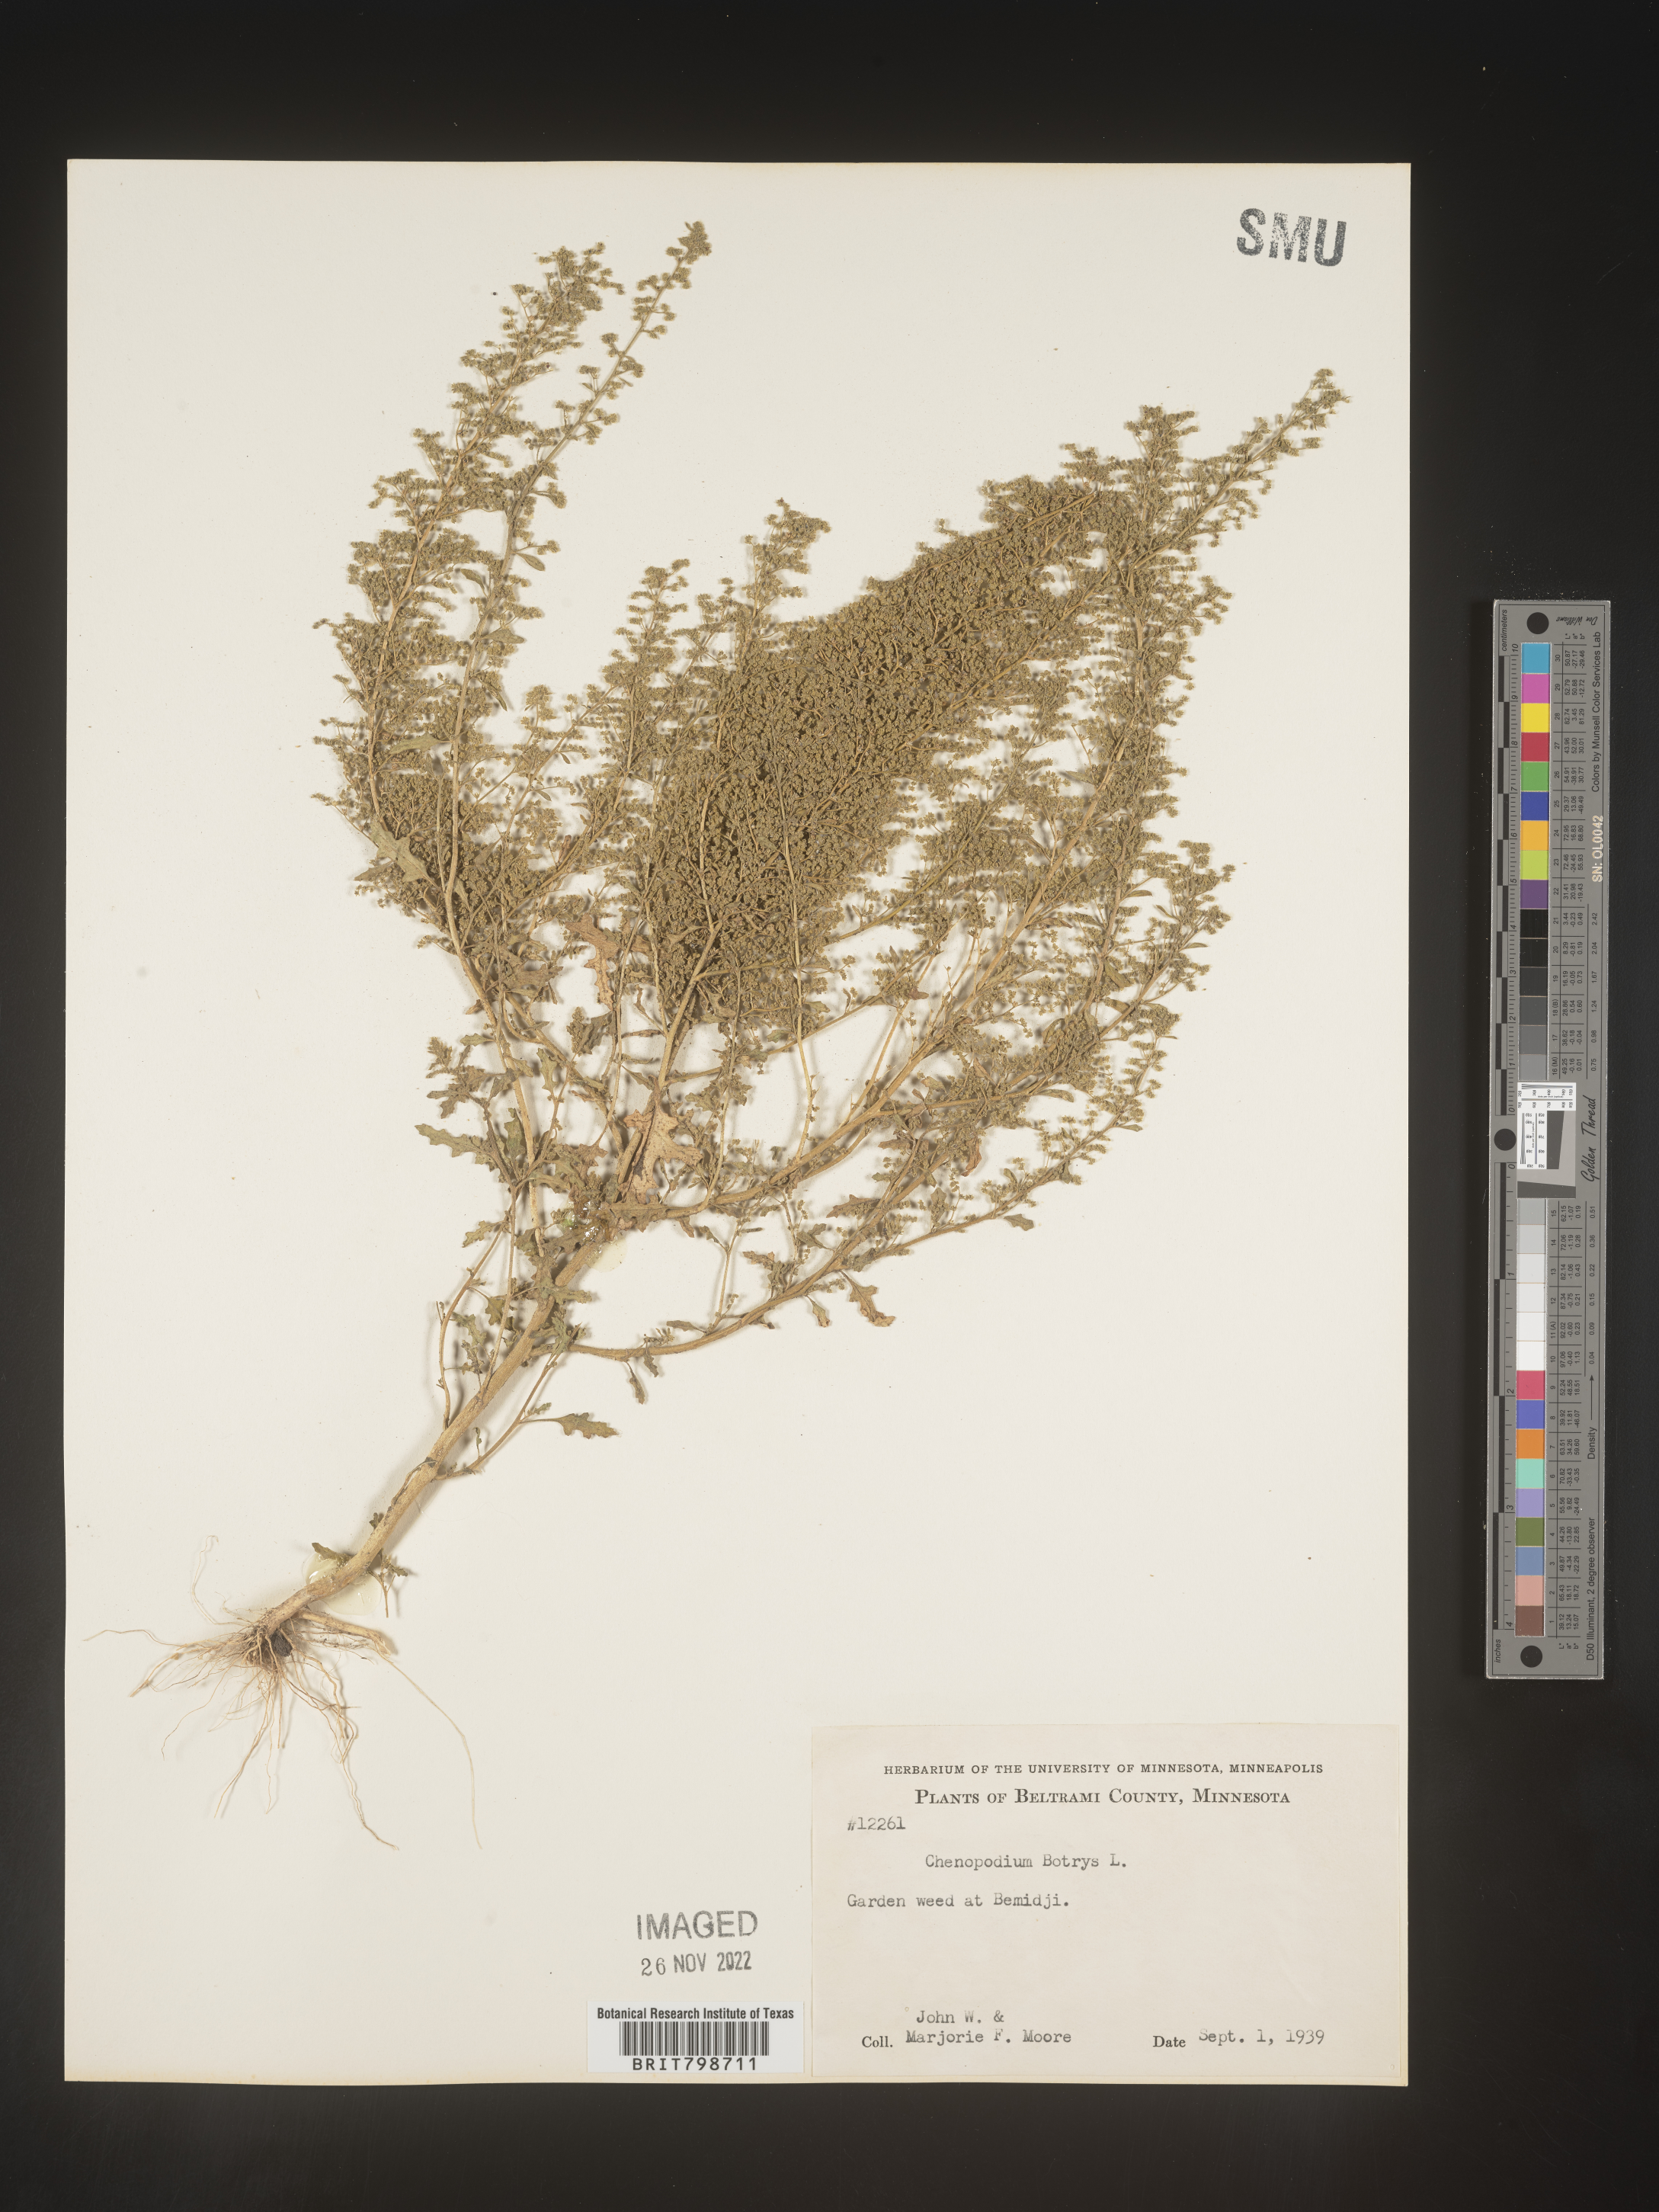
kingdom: Plantae
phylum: Tracheophyta
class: Magnoliopsida
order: Caryophyllales
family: Amaranthaceae
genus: Dysphania
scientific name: Dysphania botrys
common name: Feather-geranium
